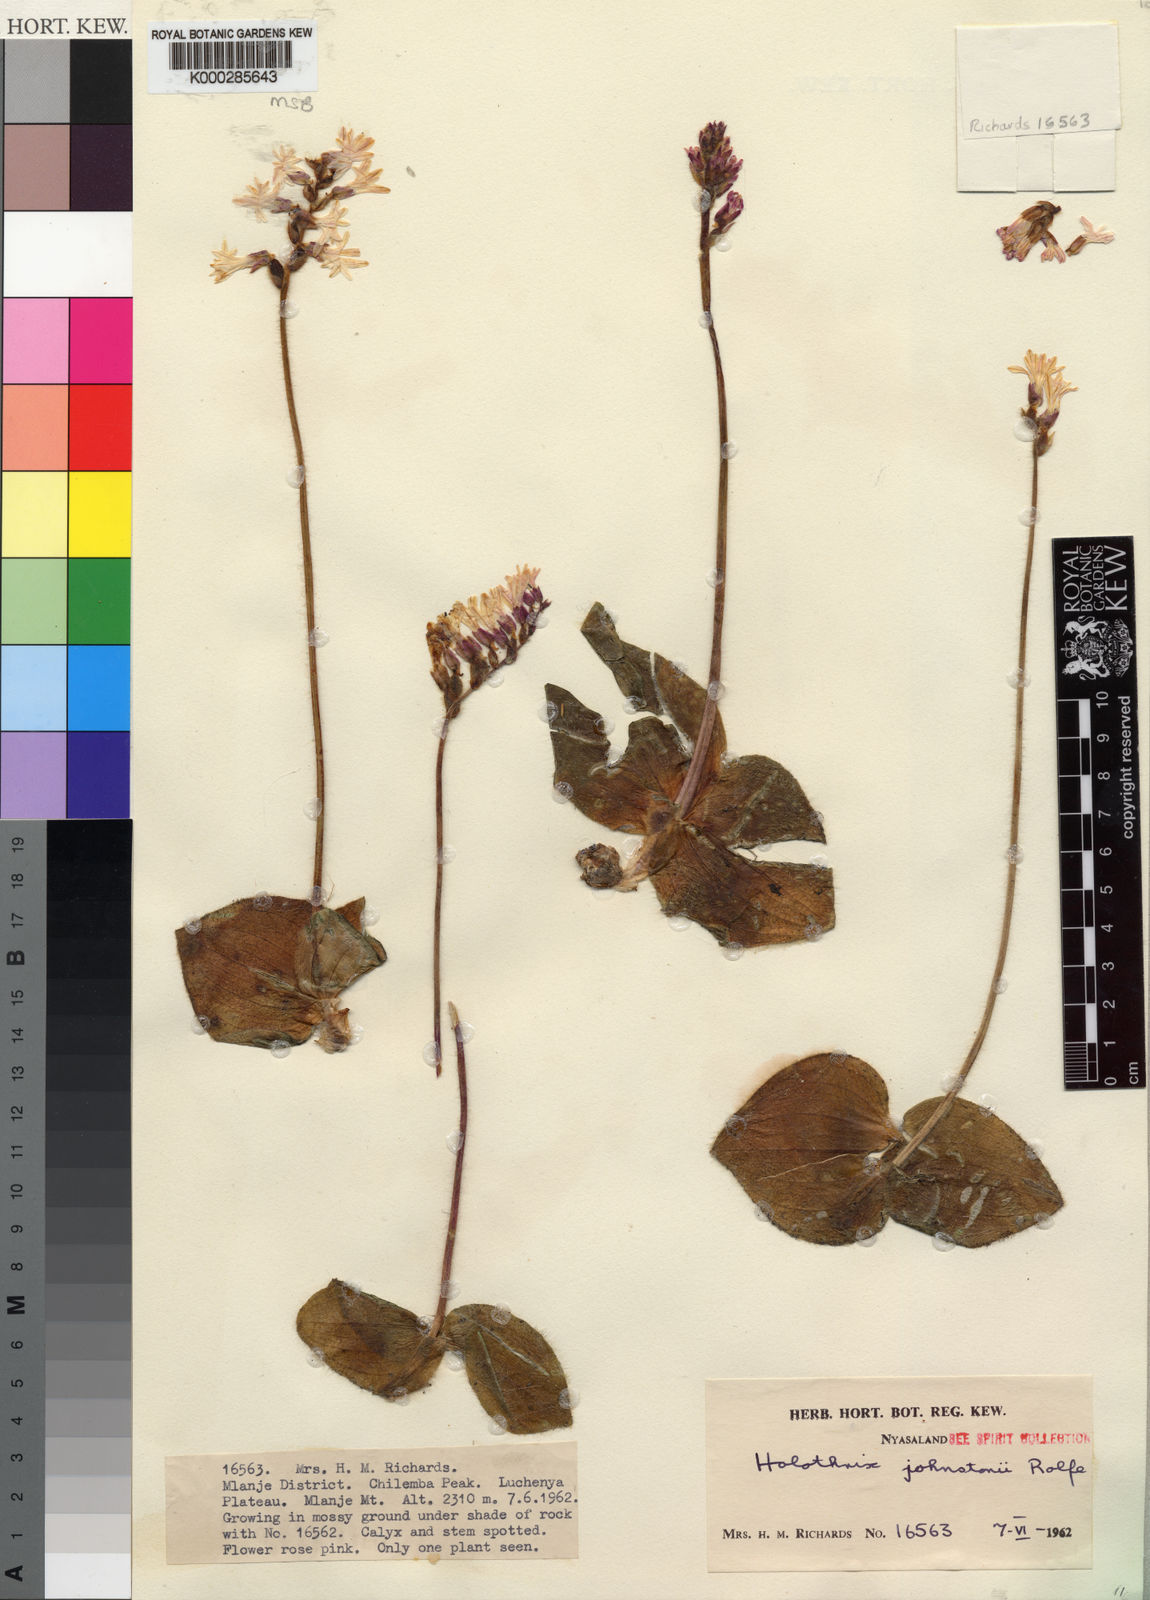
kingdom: Plantae
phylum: Tracheophyta
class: Liliopsida
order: Asparagales
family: Orchidaceae
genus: Holothrix
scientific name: Holothrix johnstonii
